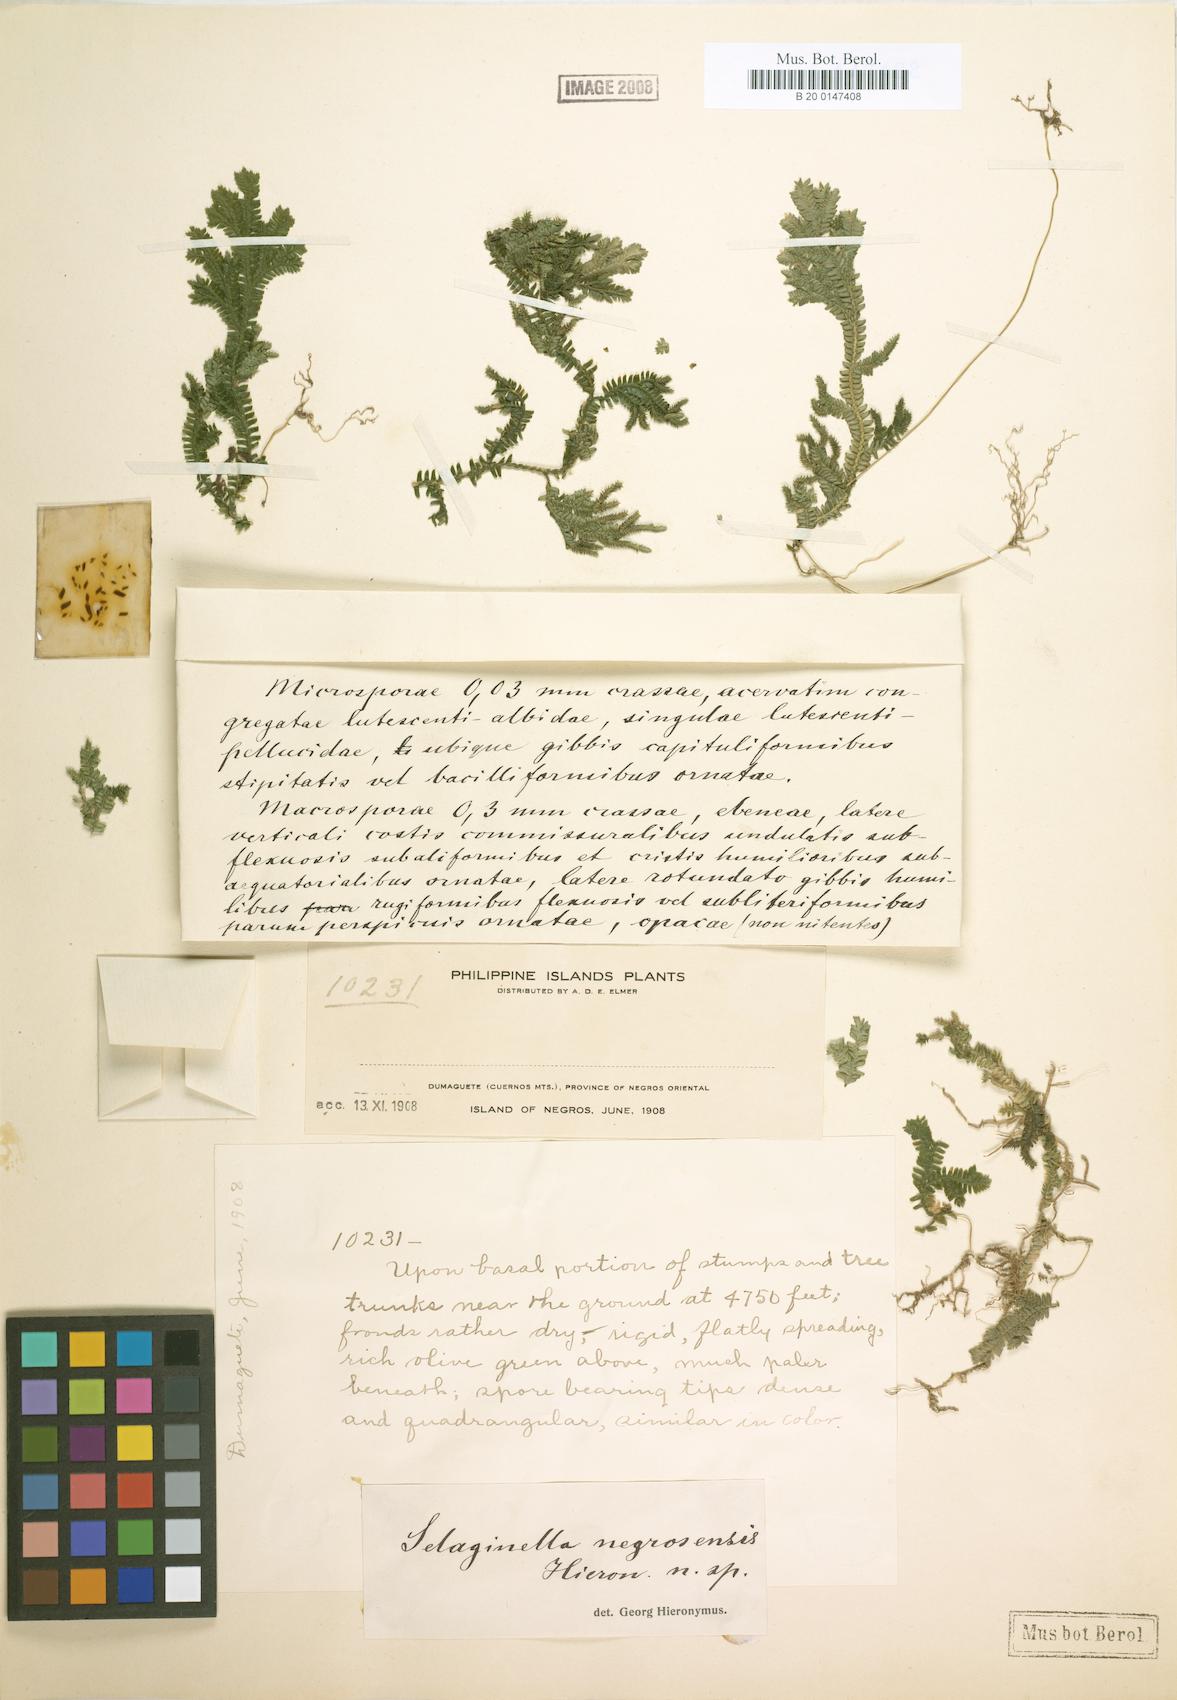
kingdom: Plantae
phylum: Tracheophyta
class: Lycopodiopsida
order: Selaginellales
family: Selaginellaceae
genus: Selaginella
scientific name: Selaginella negrosensis
